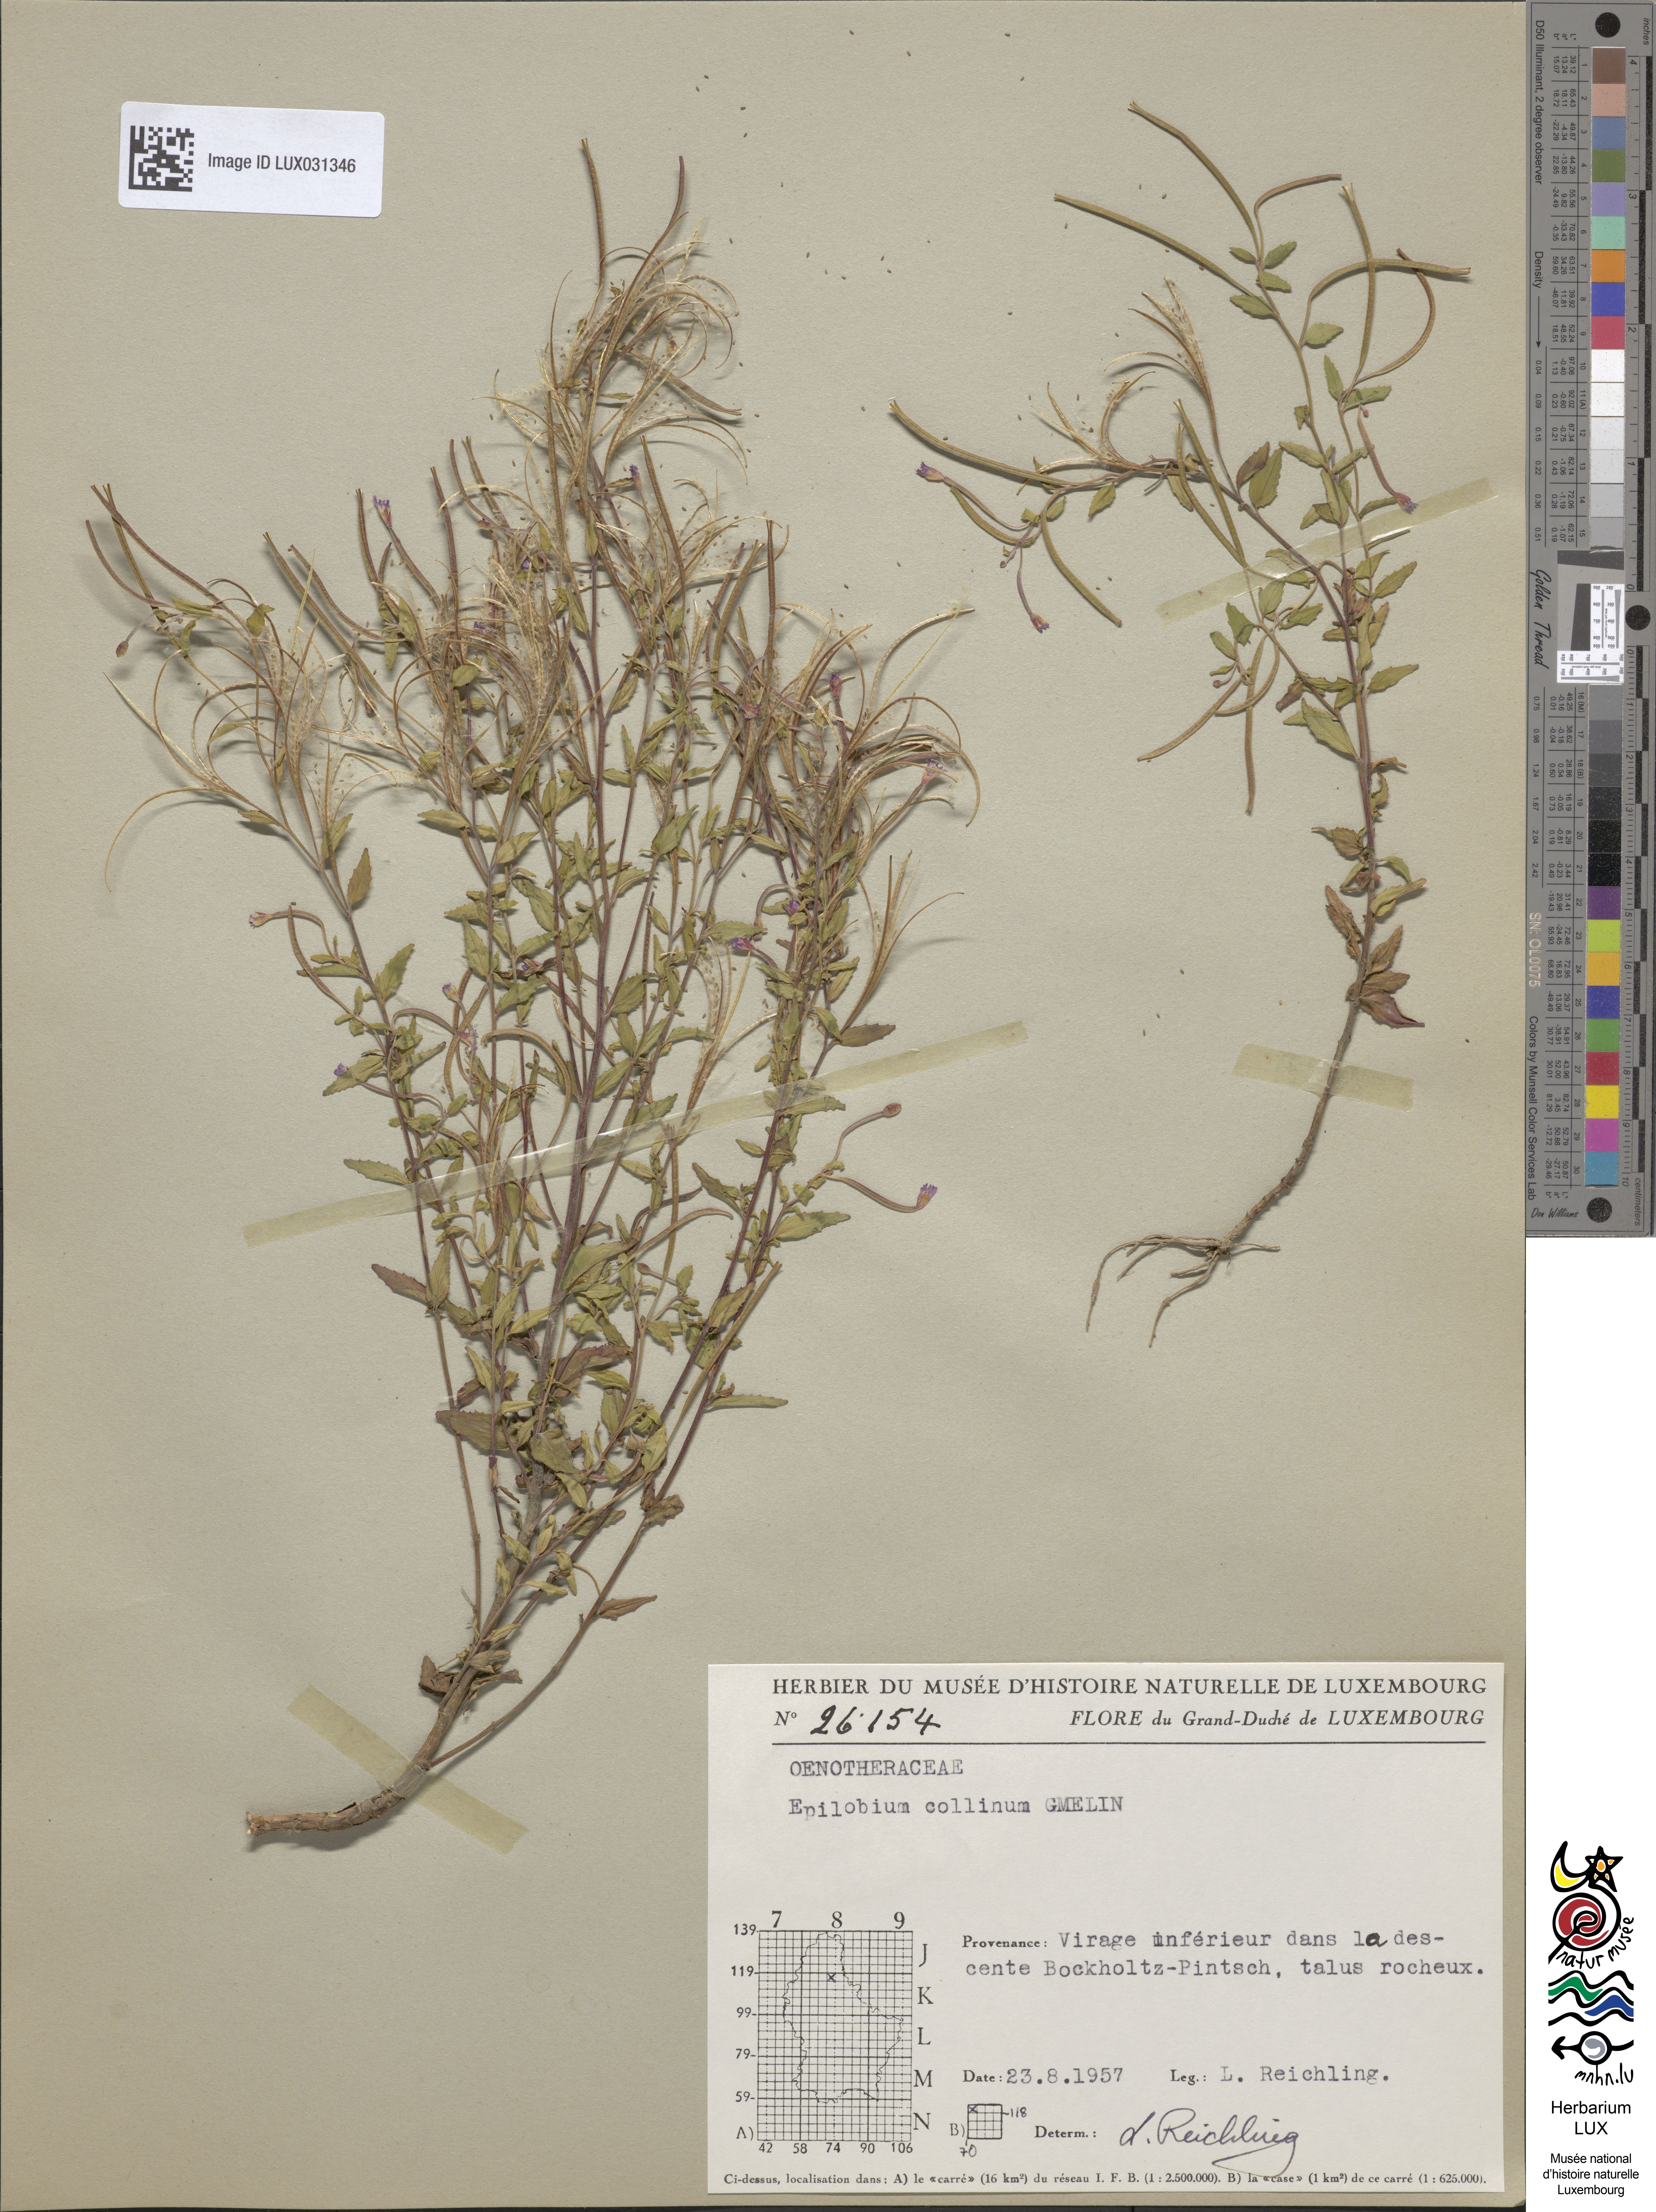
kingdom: Plantae
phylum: Tracheophyta
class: Magnoliopsida
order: Myrtales
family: Onagraceae
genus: Epilobium
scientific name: Epilobium collinum
